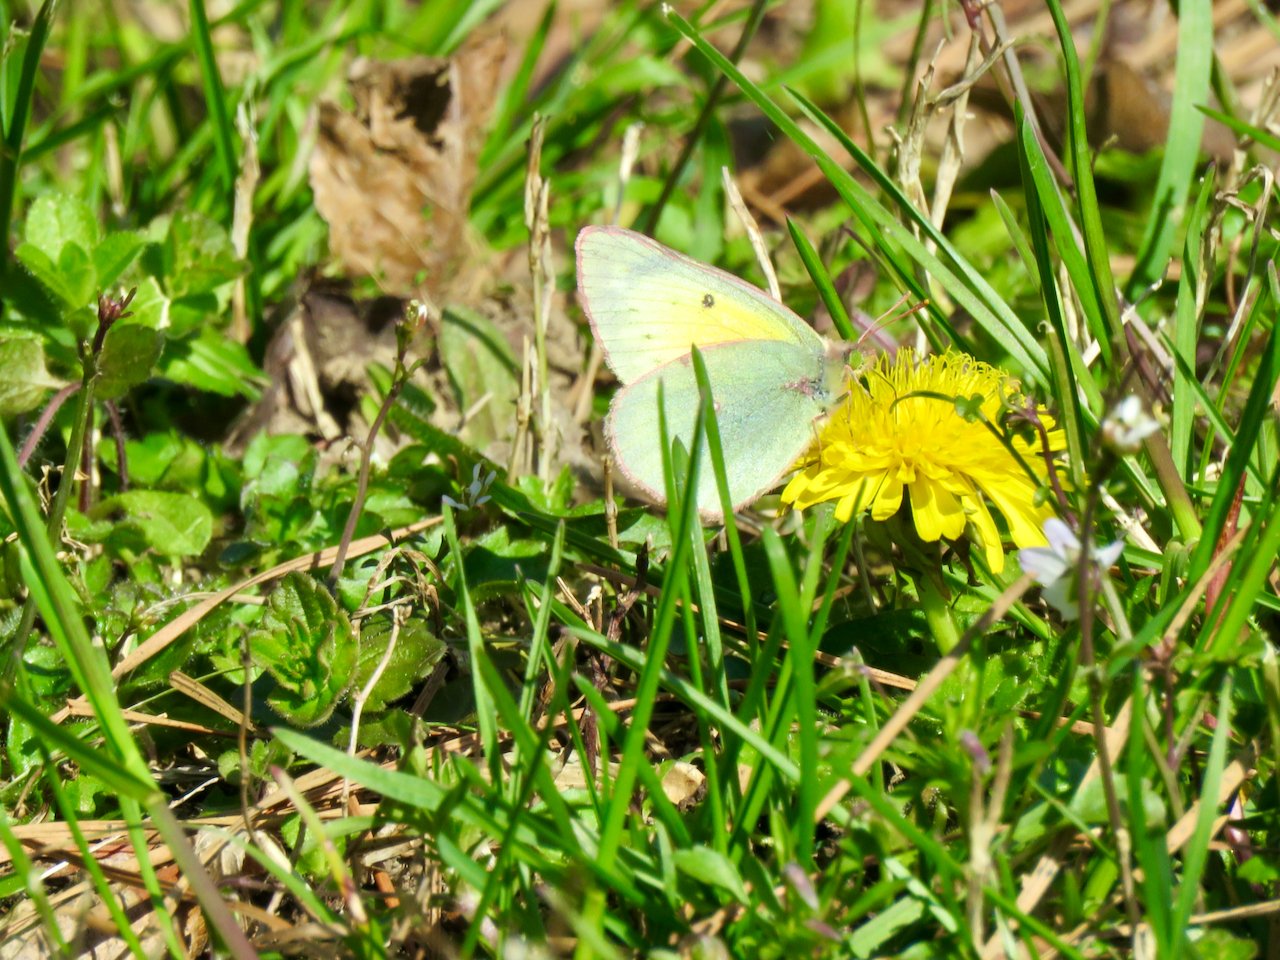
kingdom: Animalia
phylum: Arthropoda
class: Insecta
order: Lepidoptera
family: Pieridae
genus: Colias
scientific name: Colias eurytheme
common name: Orange Sulphur
